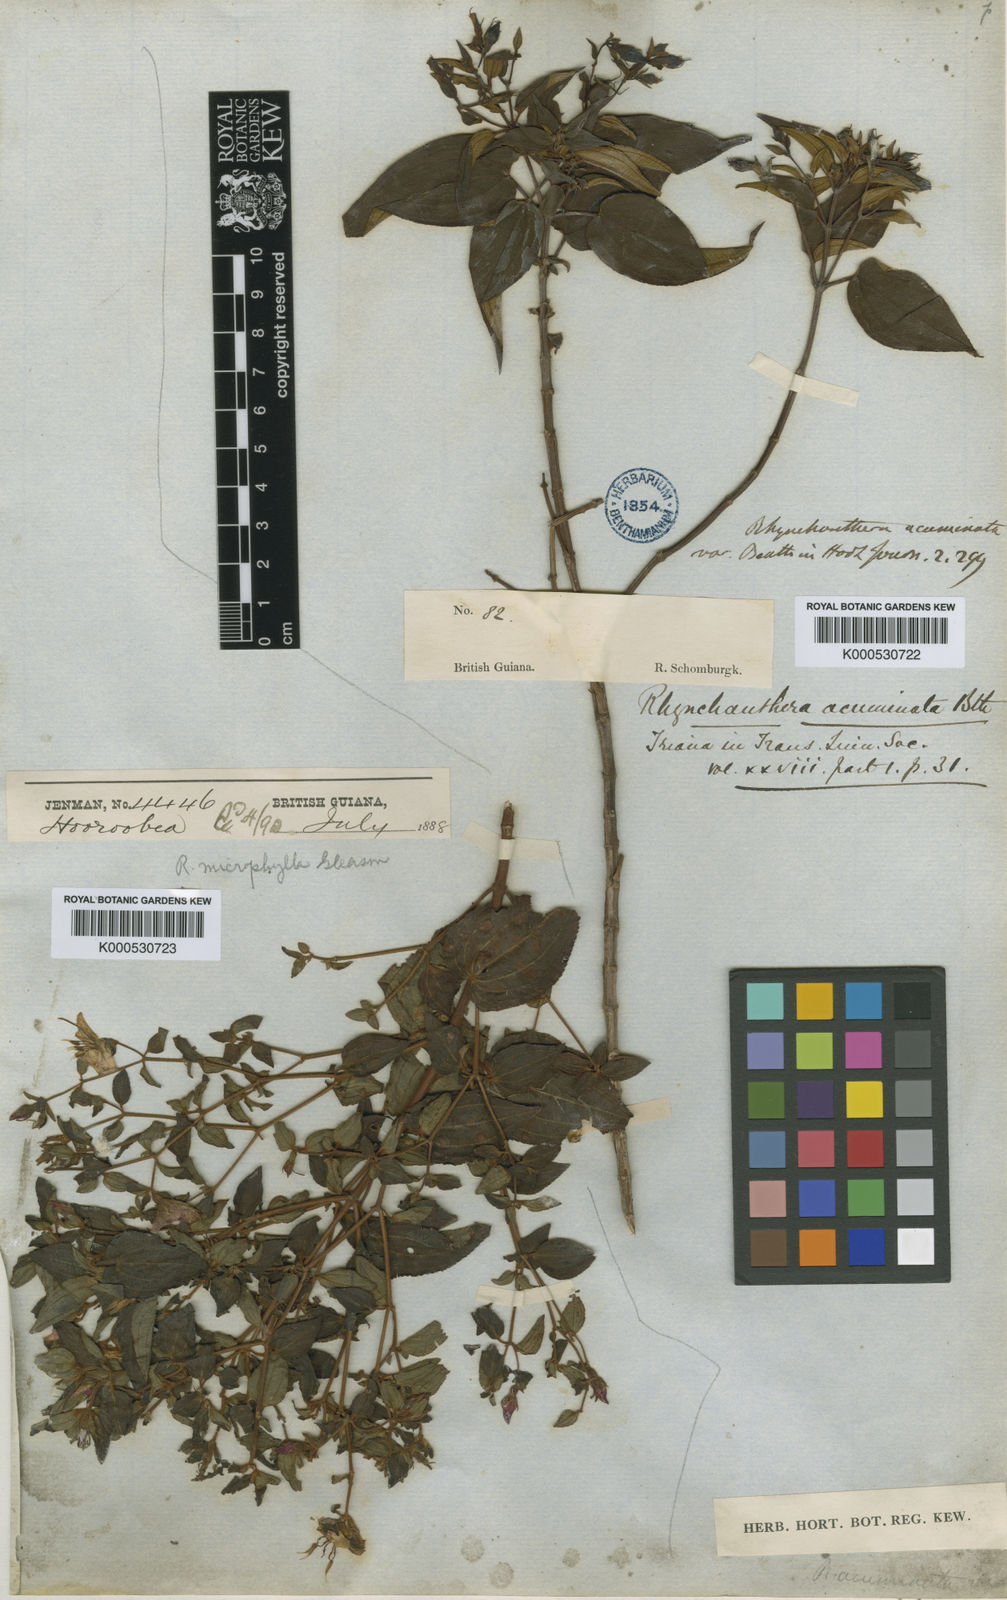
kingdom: Plantae
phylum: Tracheophyta
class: Magnoliopsida
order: Myrtales
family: Melastomataceae
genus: Rhynchanthera
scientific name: Rhynchanthera grandiflora
